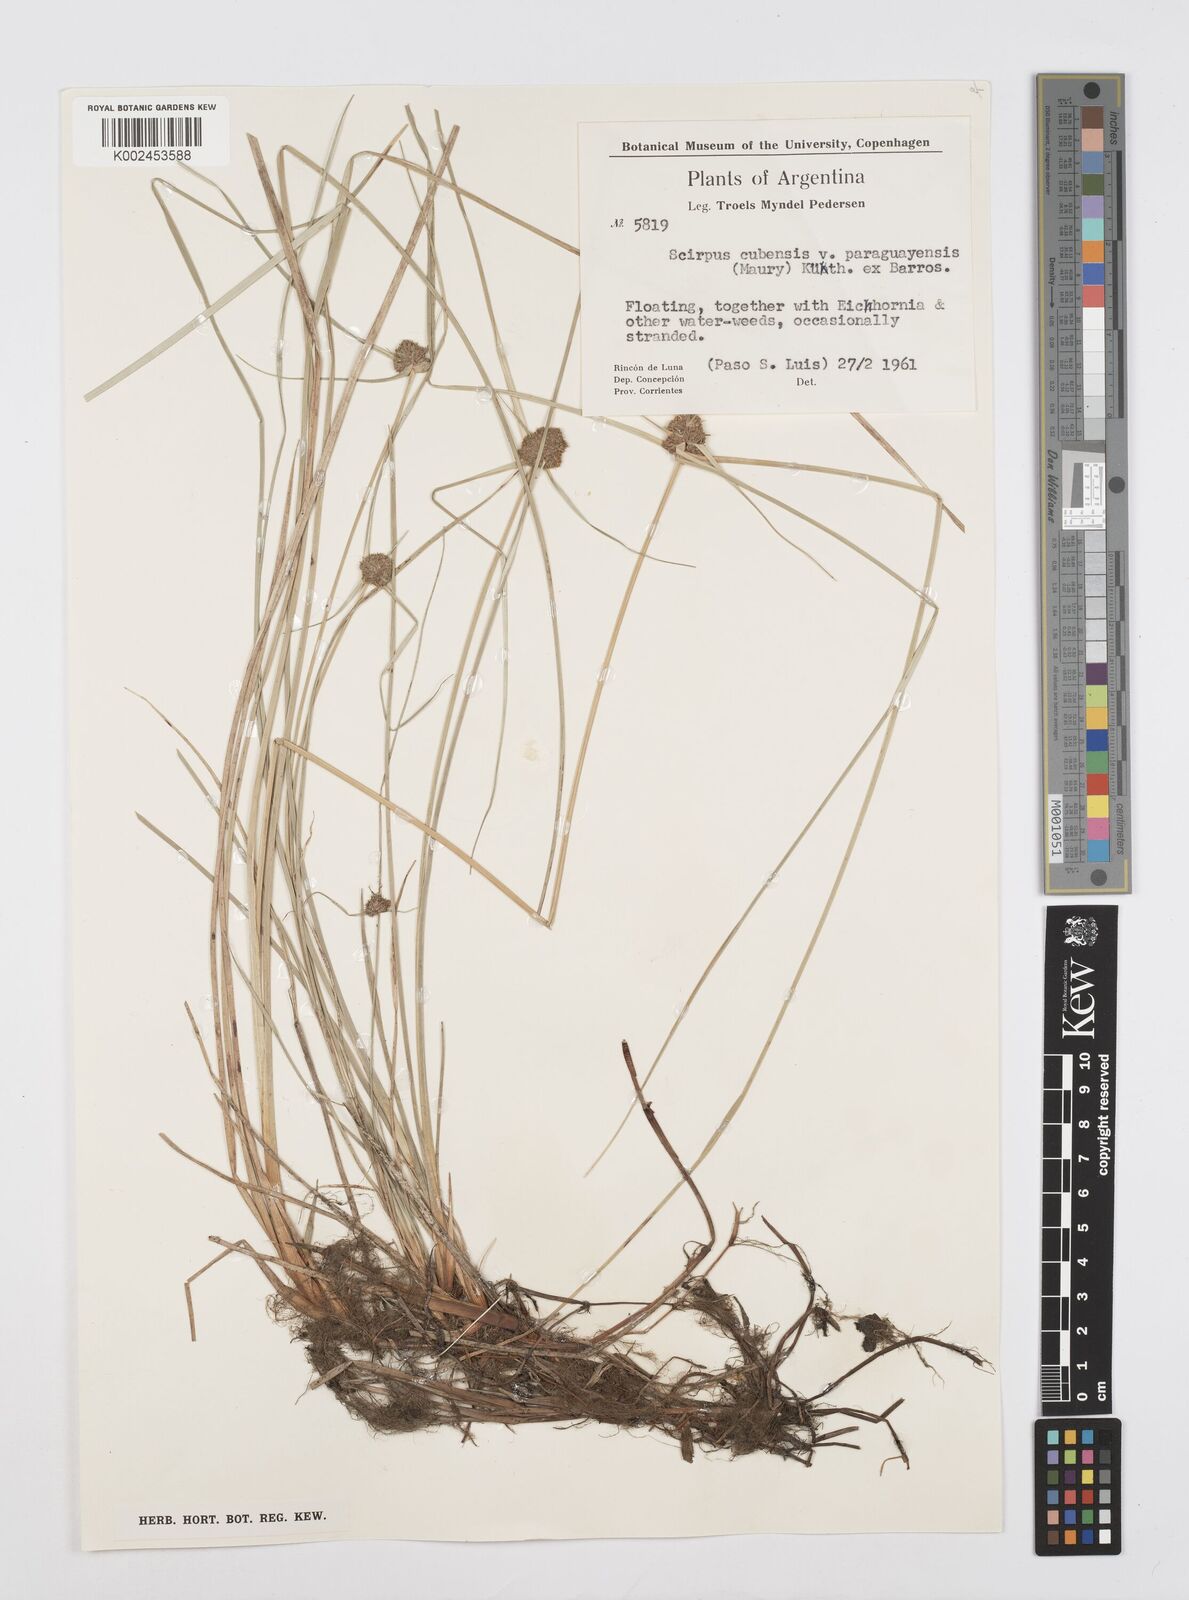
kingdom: Plantae
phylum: Tracheophyta
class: Liliopsida
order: Poales
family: Cyperaceae
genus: Cyperus
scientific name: Cyperus elegans
